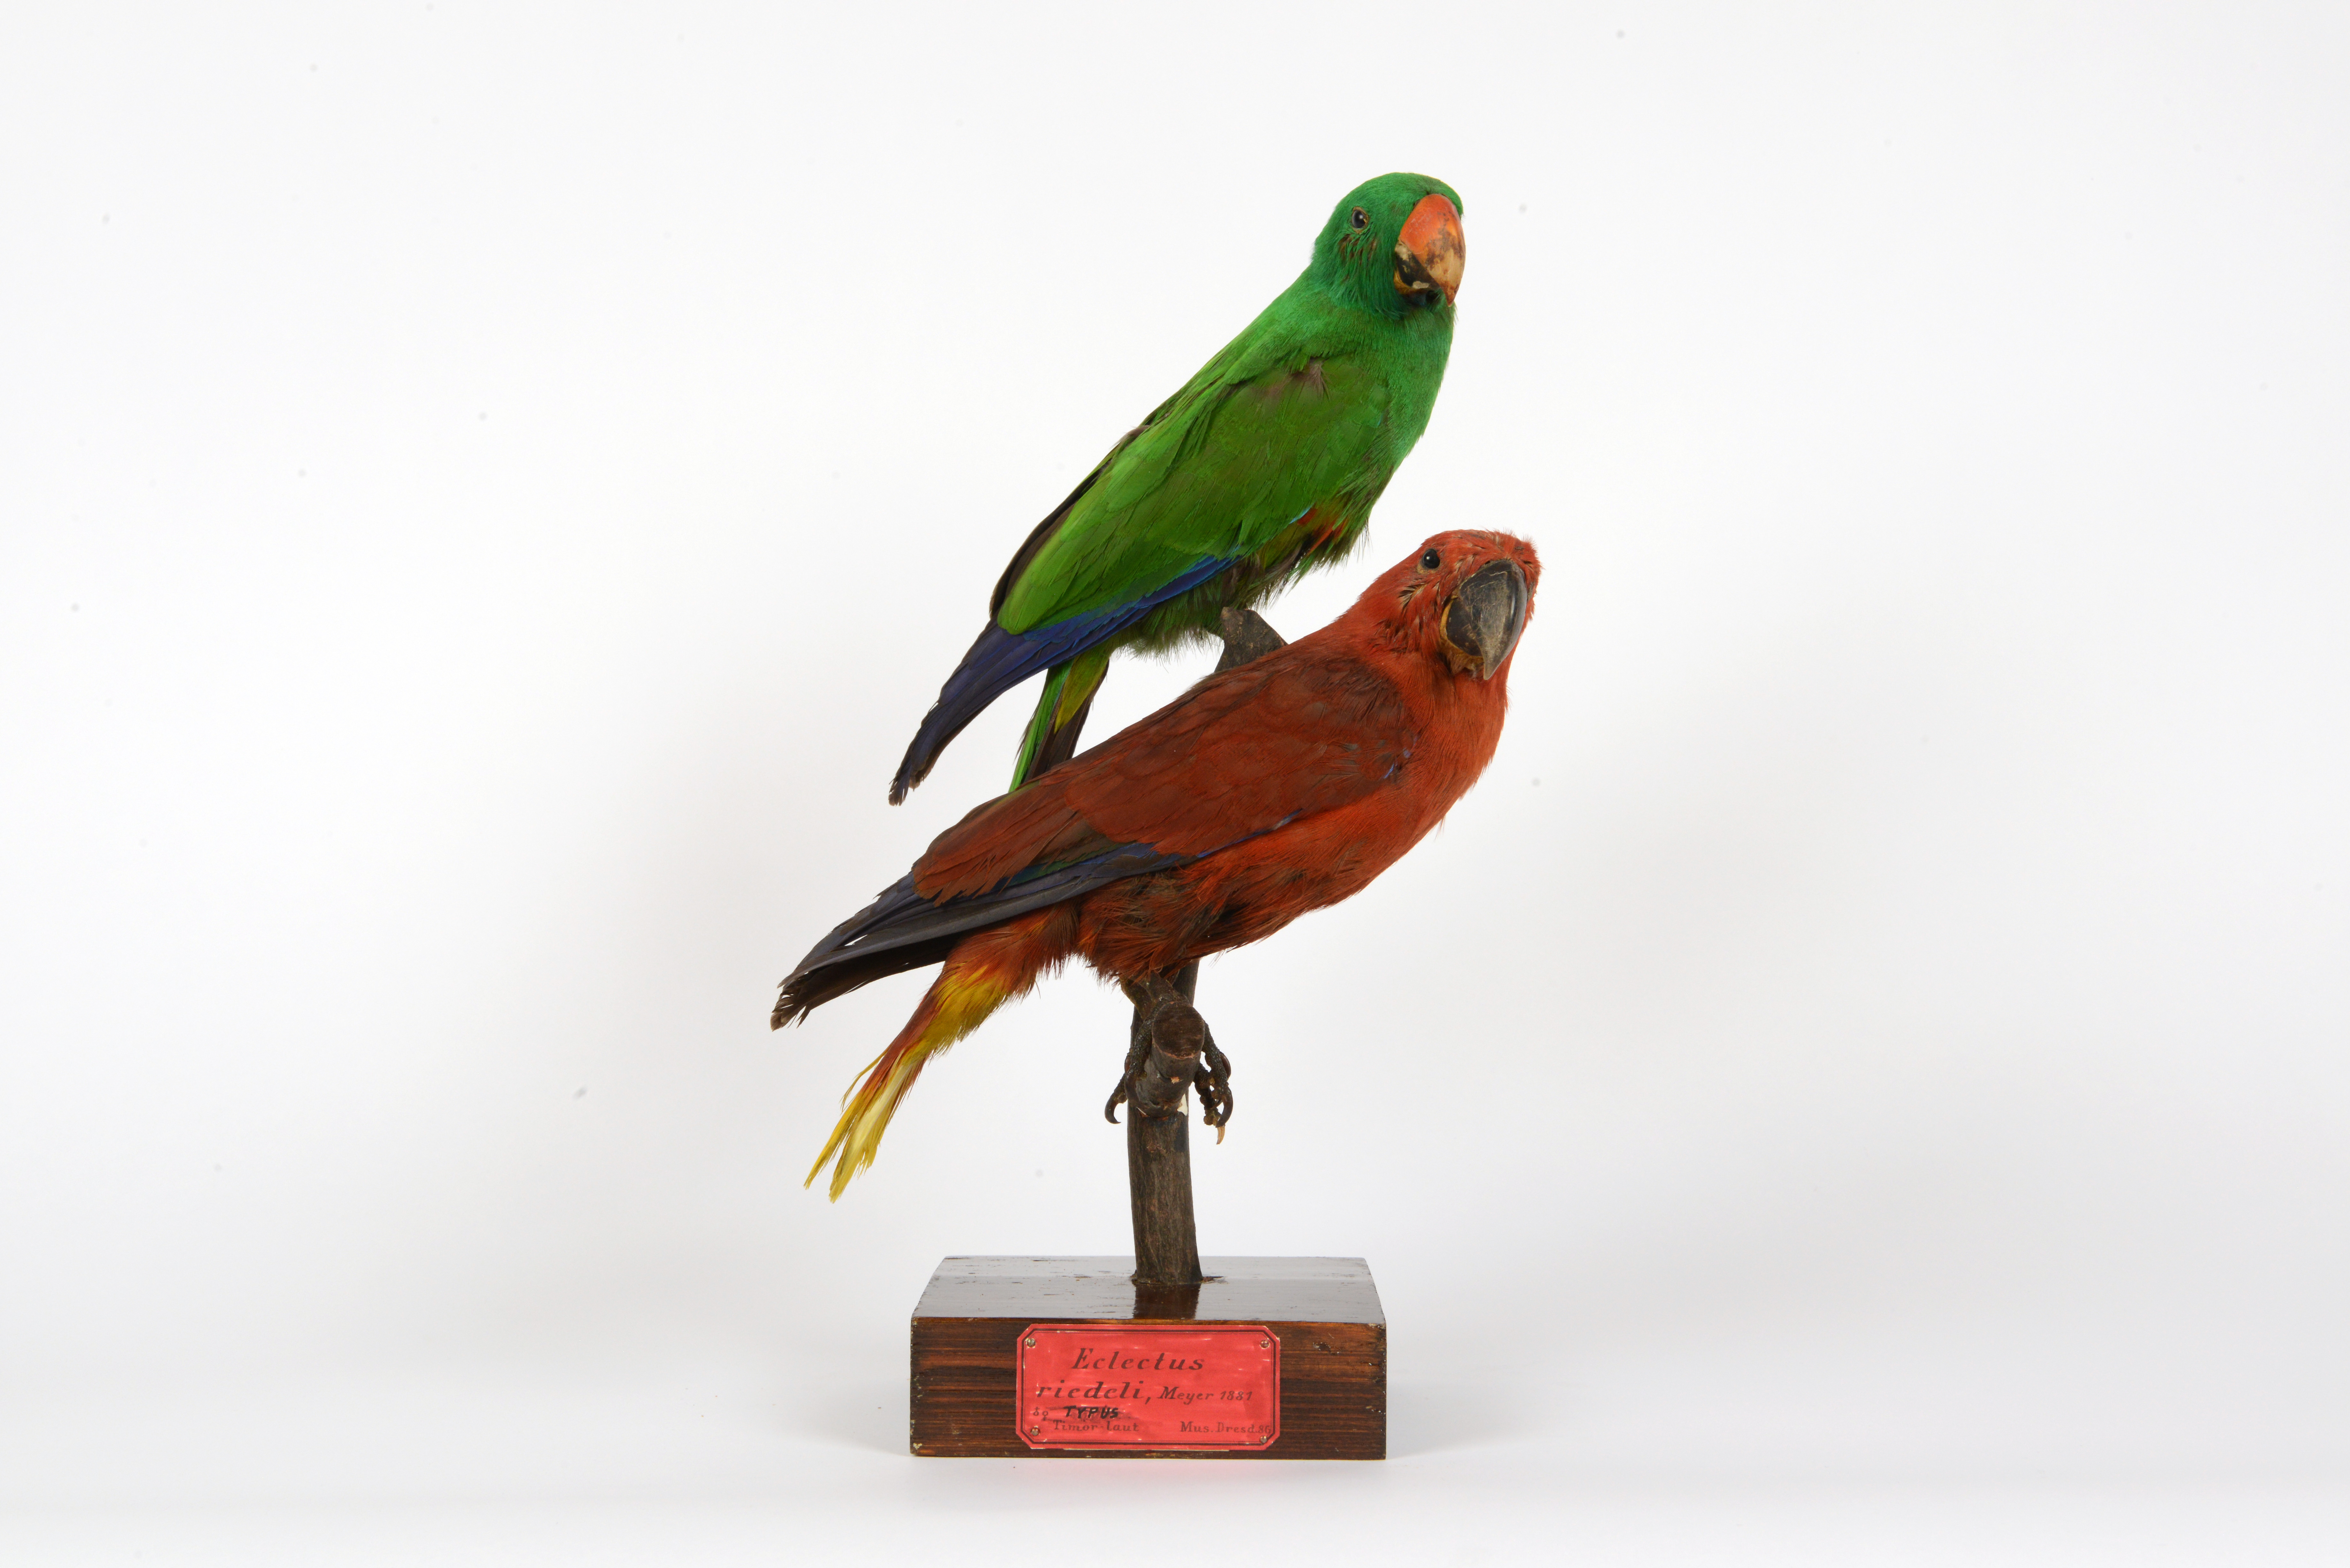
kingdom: Animalia
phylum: Chordata
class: Aves
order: Psittaciformes
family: Psittacidae
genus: Eclectus
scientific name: Eclectus roratus
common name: Eclectus parrot
